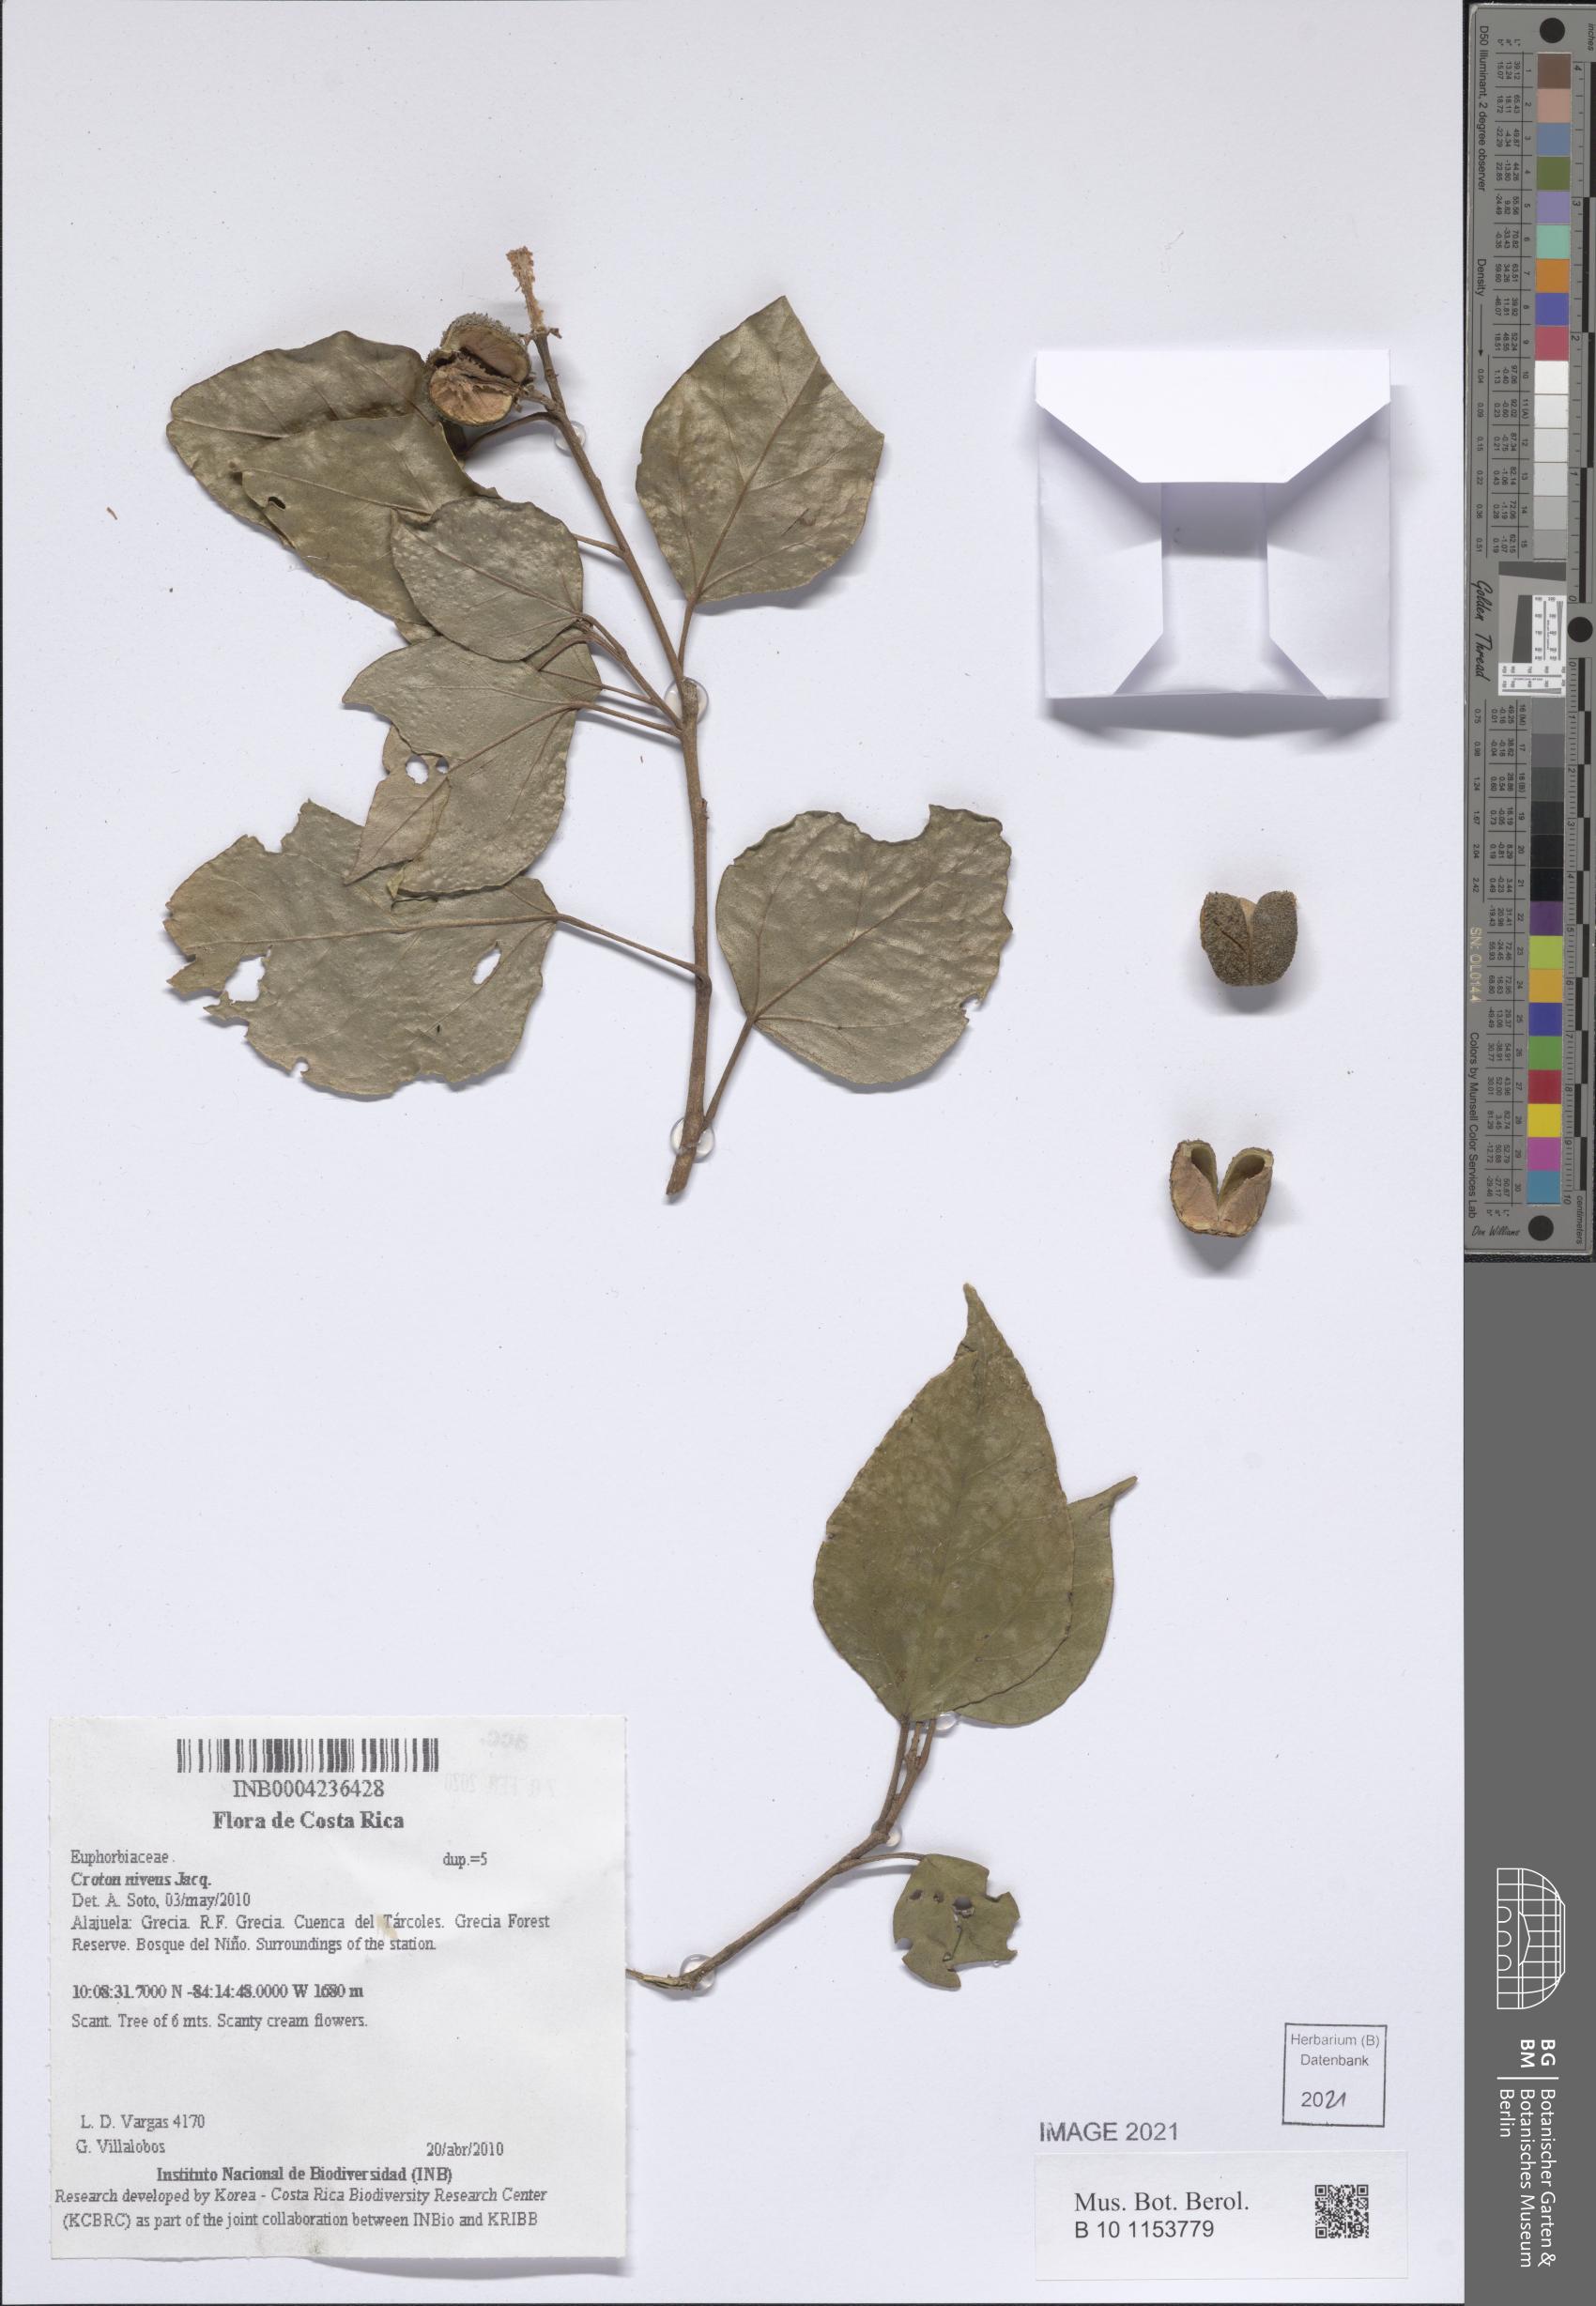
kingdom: Plantae
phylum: Tracheophyta
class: Magnoliopsida
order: Malpighiales
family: Euphorbiaceae
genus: Croton
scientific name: Croton niveus
